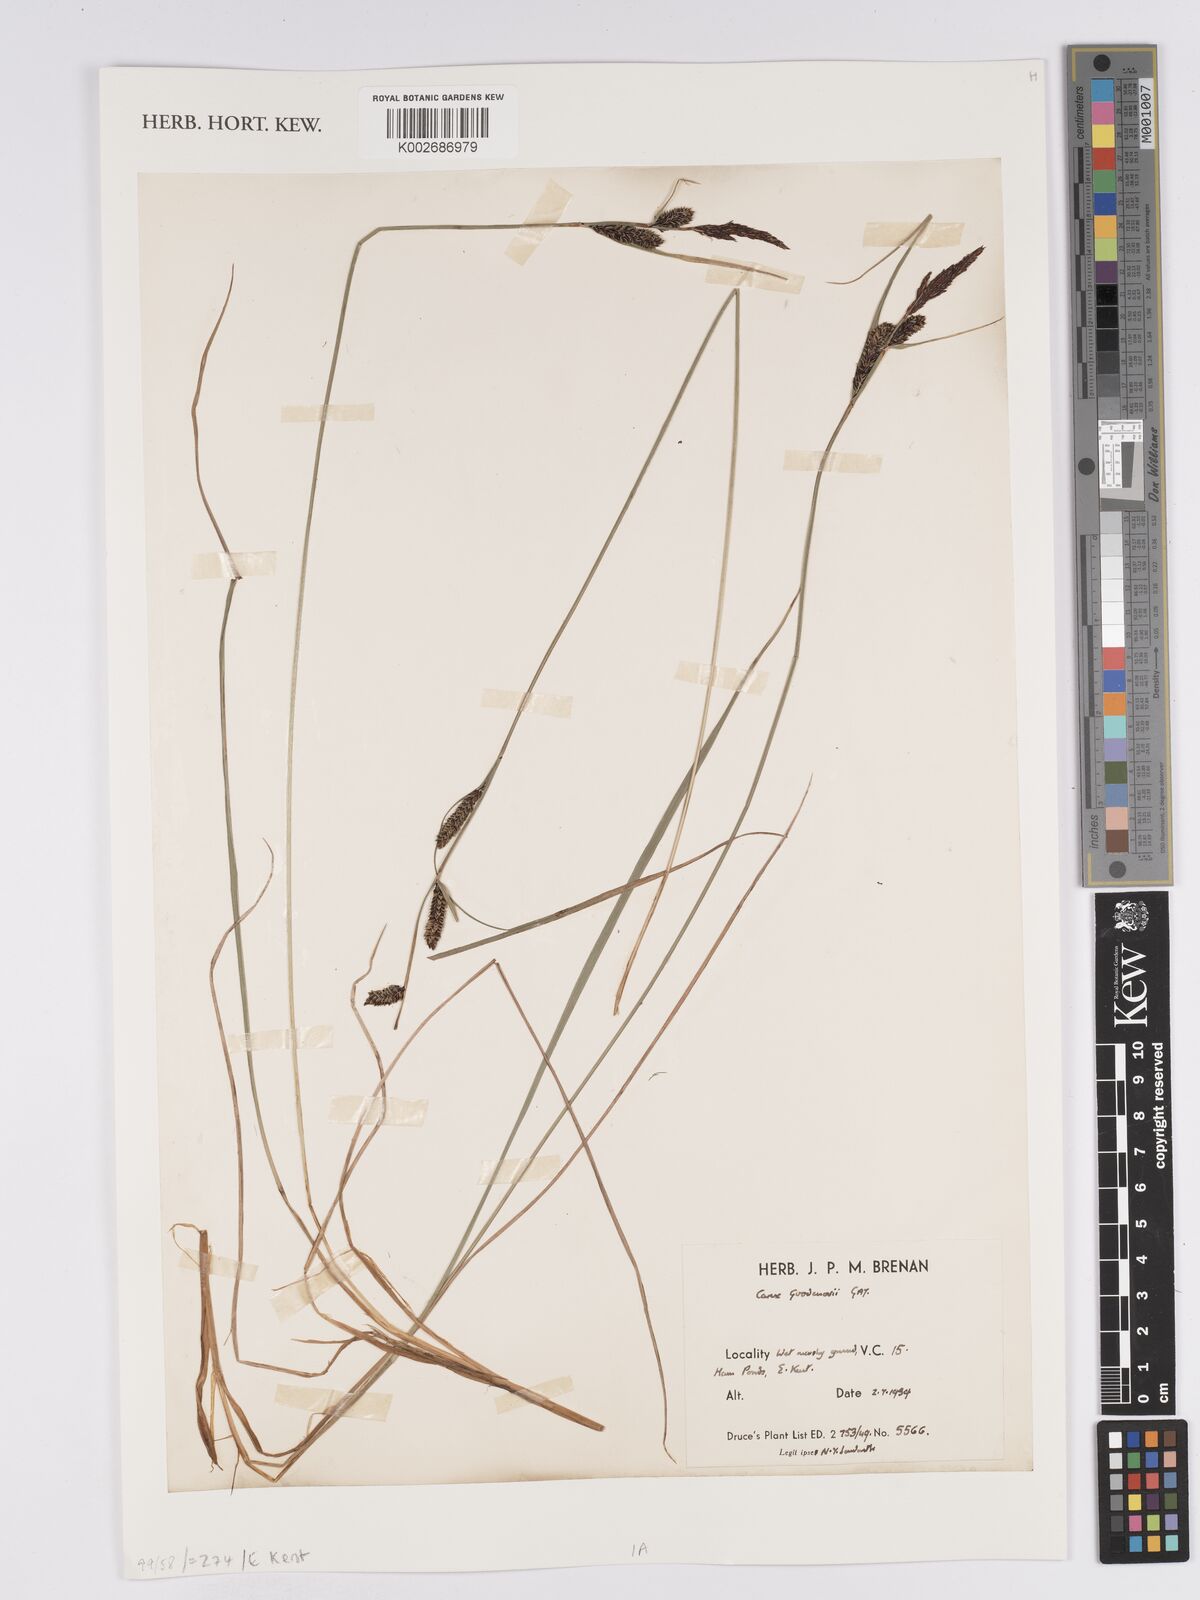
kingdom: Plantae
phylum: Tracheophyta
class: Liliopsida
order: Poales
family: Cyperaceae
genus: Carex
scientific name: Carex nigra
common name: Common sedge
